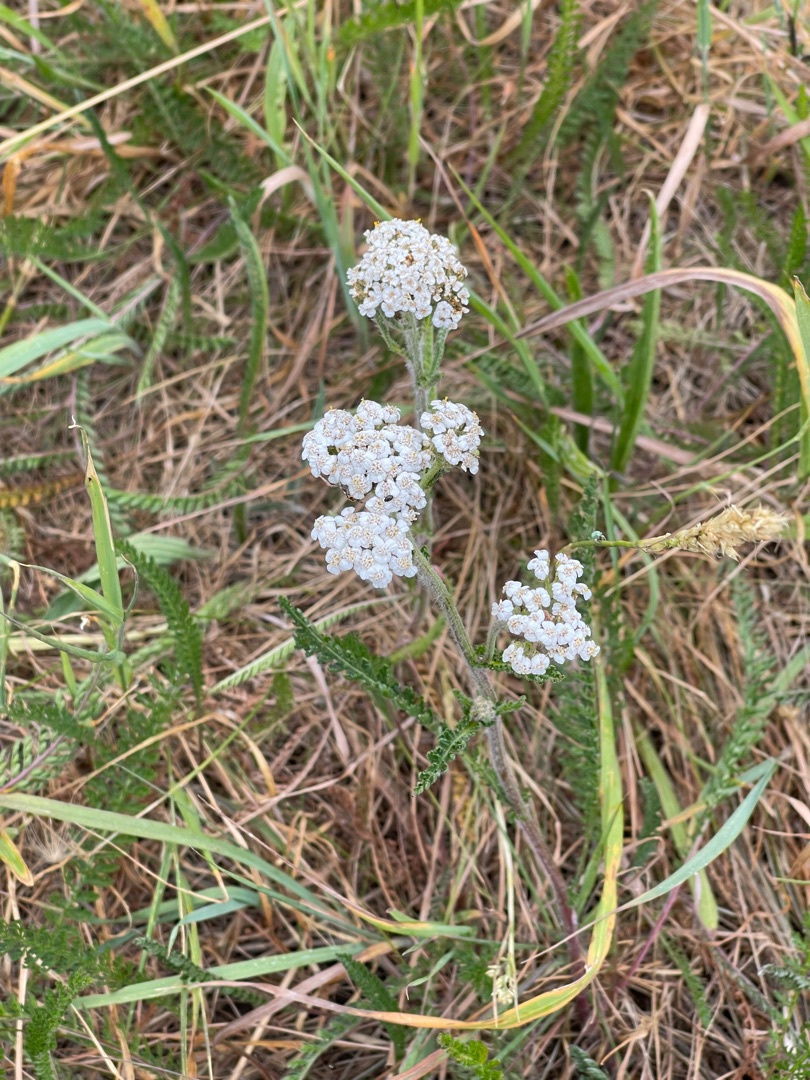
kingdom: Plantae
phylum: Tracheophyta
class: Magnoliopsida
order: Asterales
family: Asteraceae
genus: Achillea
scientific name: Achillea millefolium
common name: Almindelig røllike
